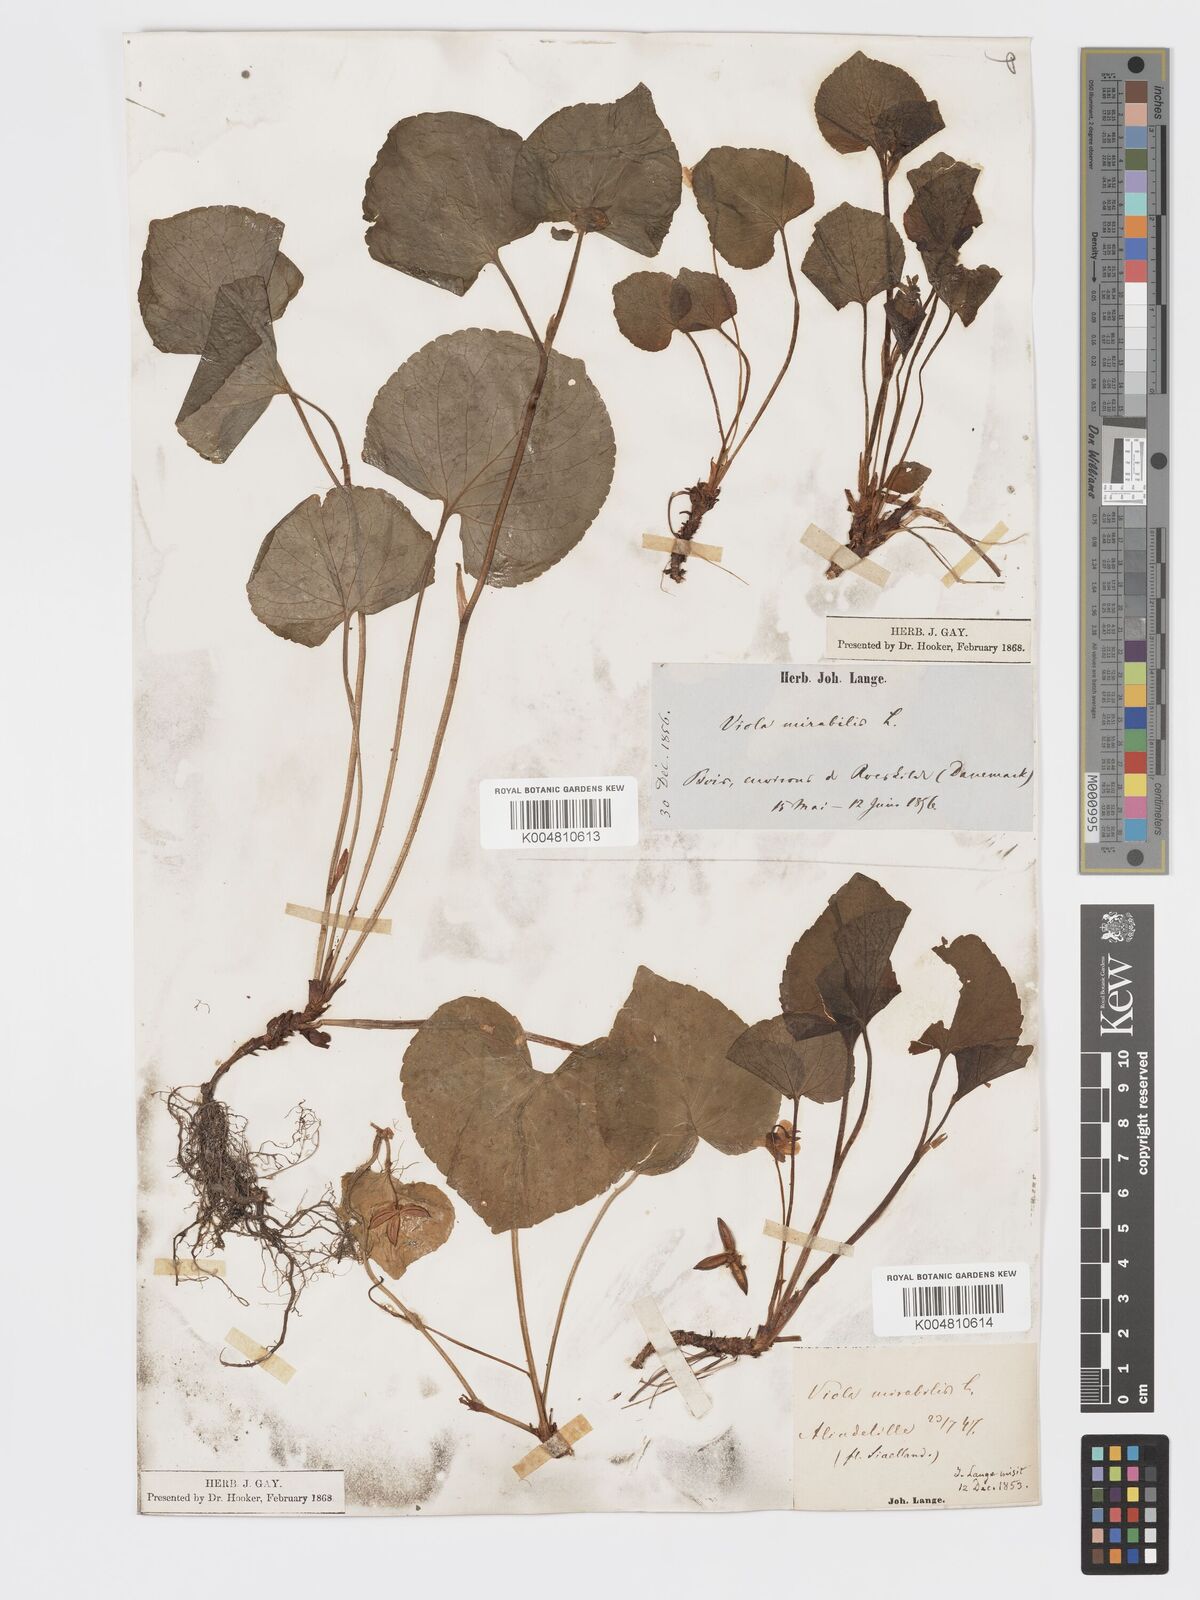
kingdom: Plantae
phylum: Tracheophyta
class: Magnoliopsida
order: Malpighiales
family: Violaceae
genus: Viola
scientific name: Viola mirabilis
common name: Wonder violet
